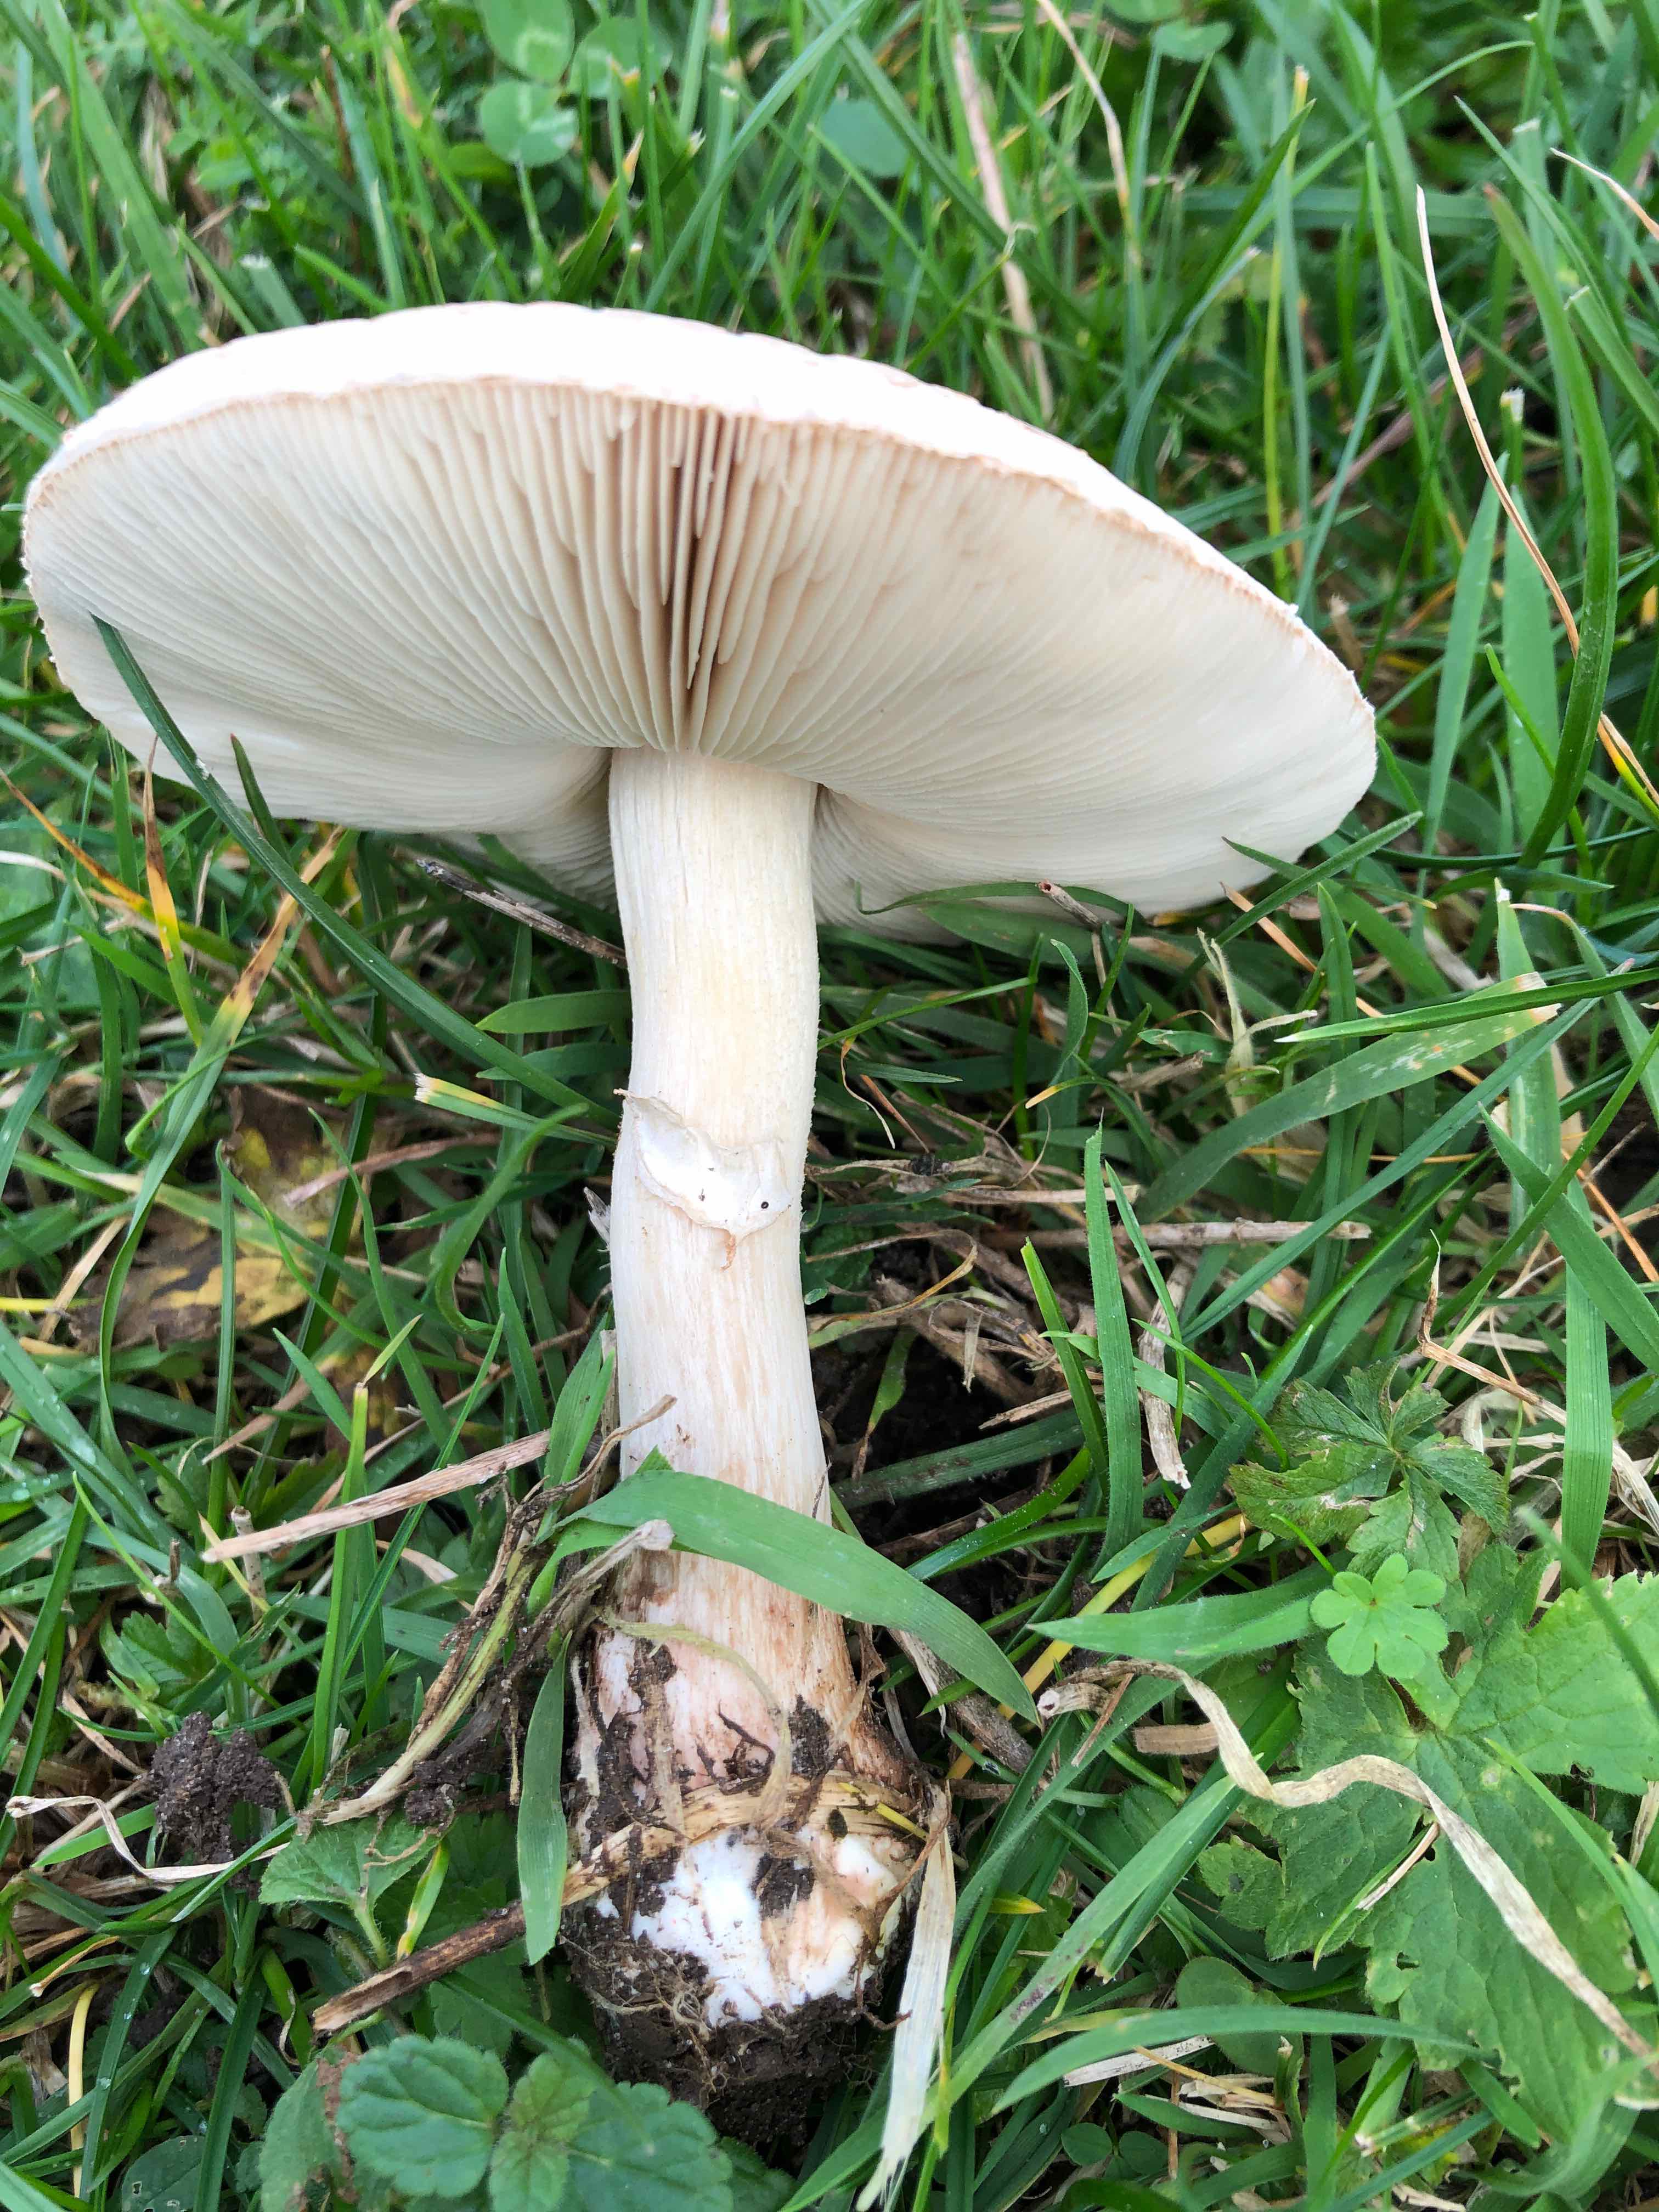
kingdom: Fungi
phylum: Basidiomycota
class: Agaricomycetes
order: Agaricales
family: Agaricaceae
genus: Macrolepiota
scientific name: Macrolepiota excoriata
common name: mark-kæmpeparasolhat
